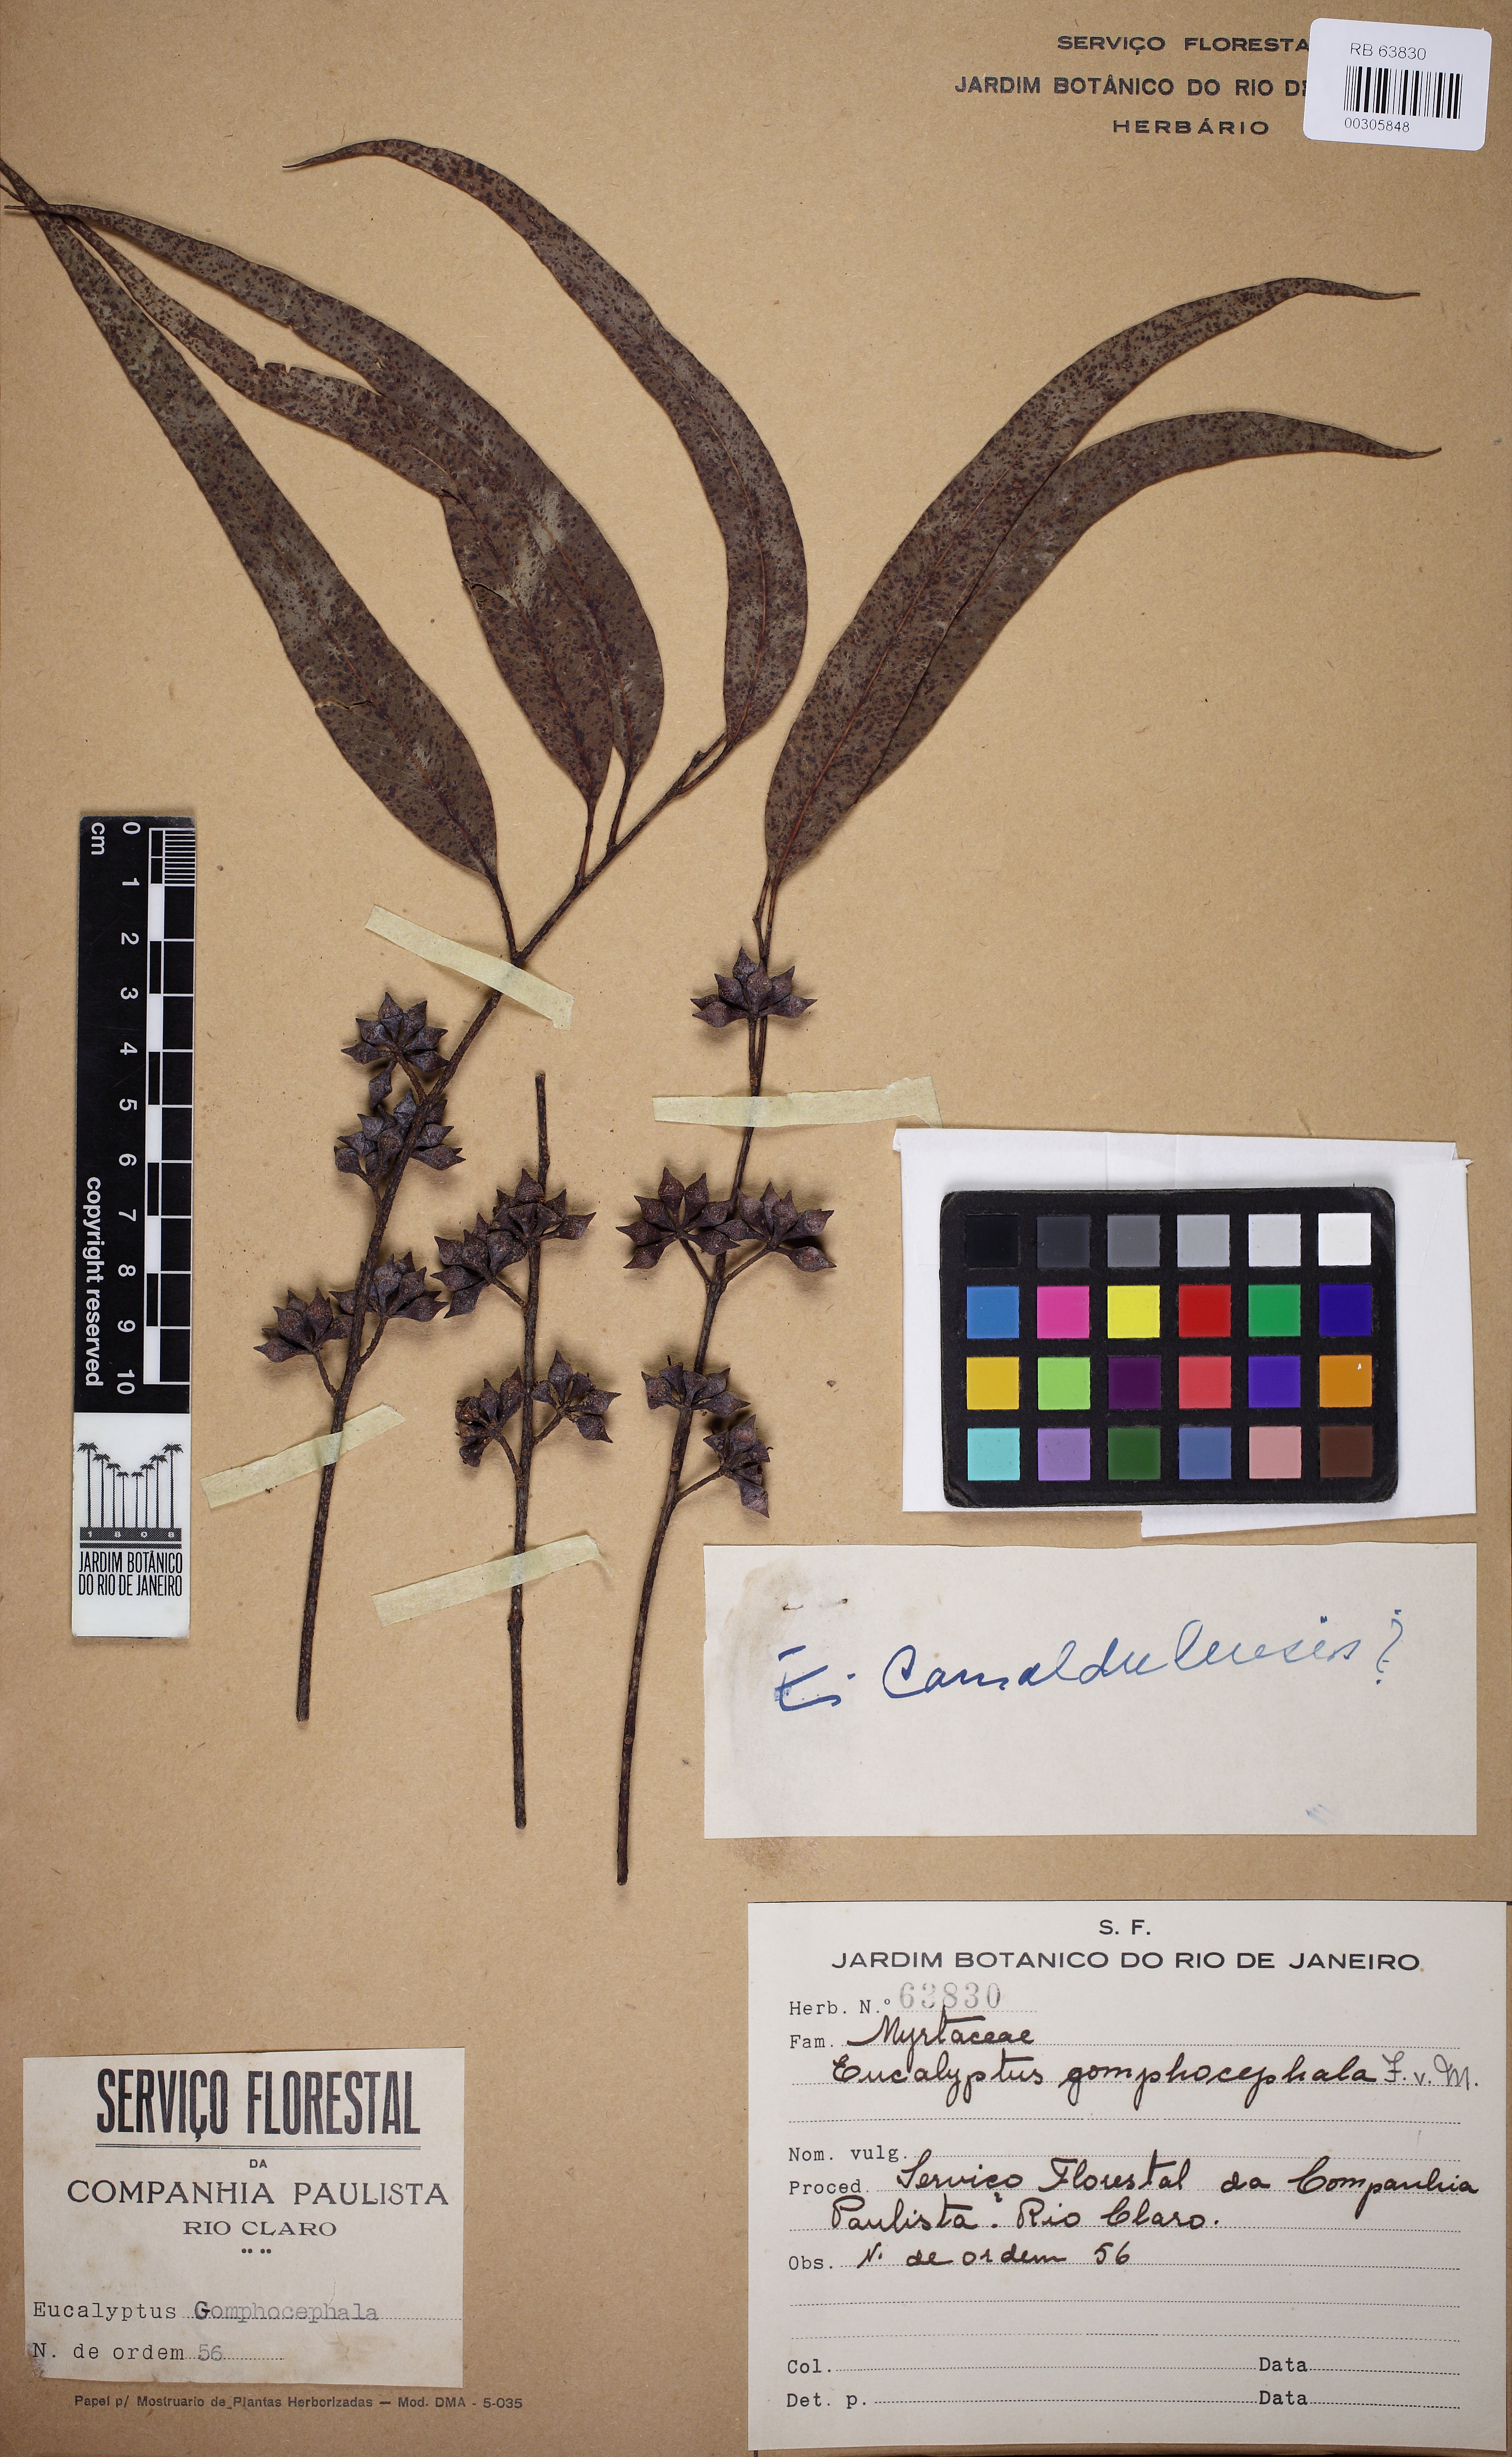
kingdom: Plantae
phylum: Tracheophyta
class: Magnoliopsida
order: Myrtales
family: Myrtaceae
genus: Eucalyptus
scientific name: Eucalyptus camaldulensis
